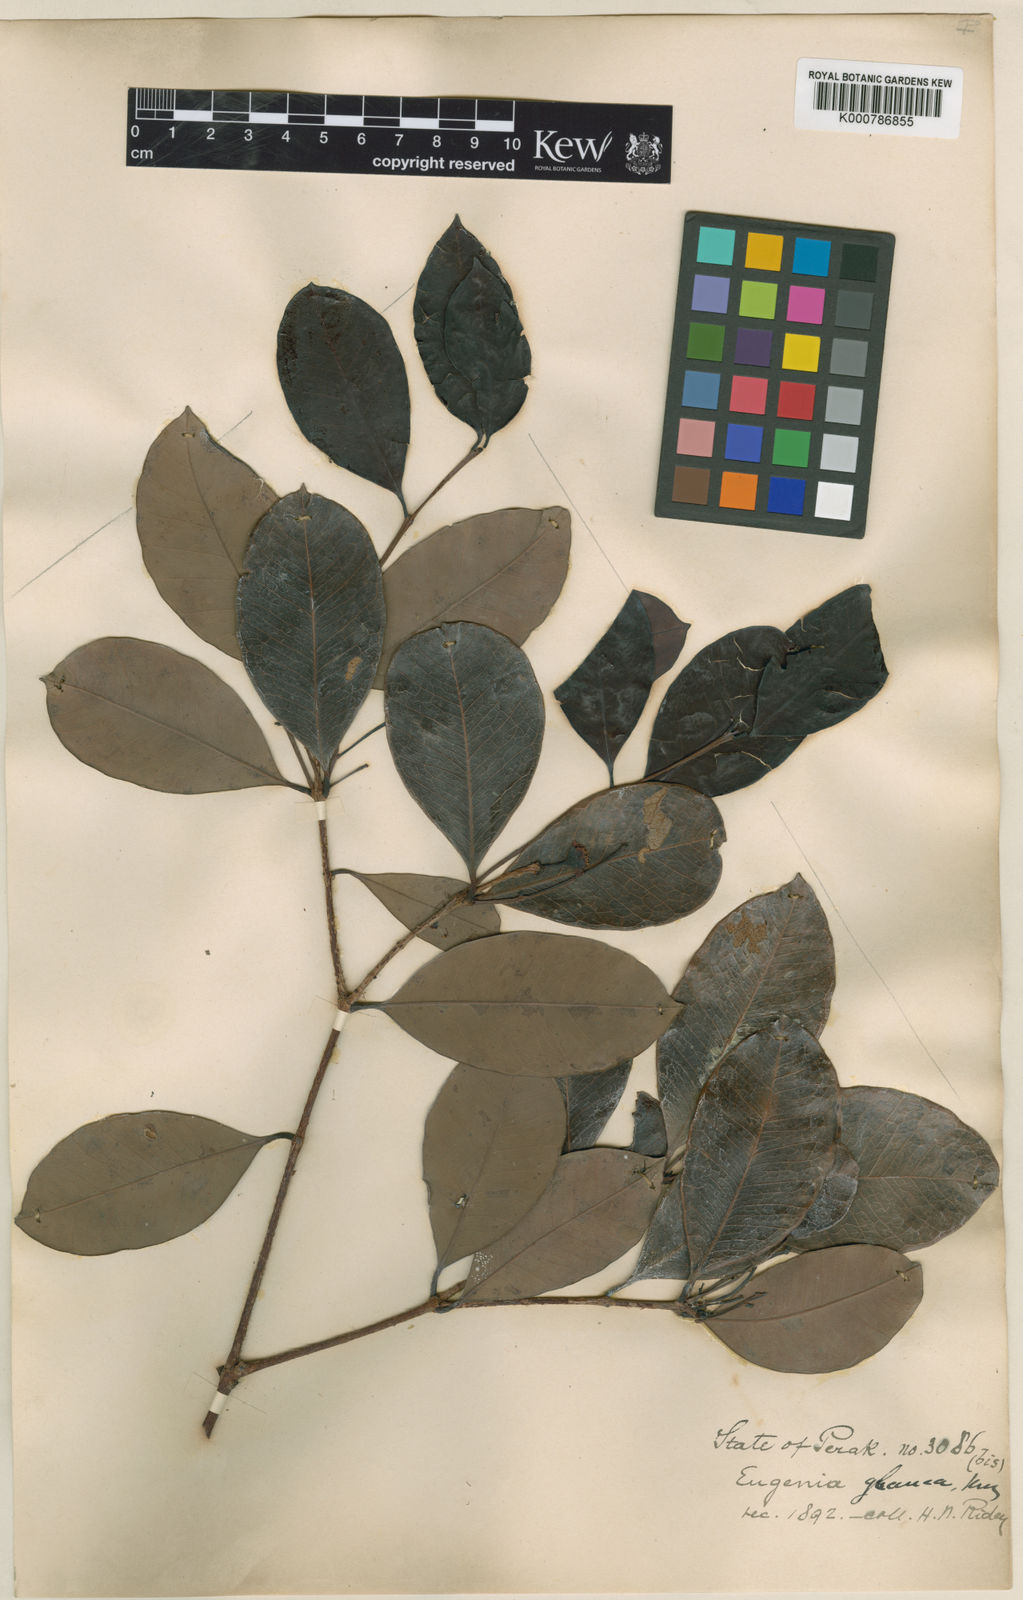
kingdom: Plantae
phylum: Tracheophyta
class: Magnoliopsida
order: Myrtales
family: Myrtaceae
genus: Syzygium
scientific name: Syzygium glaucum
